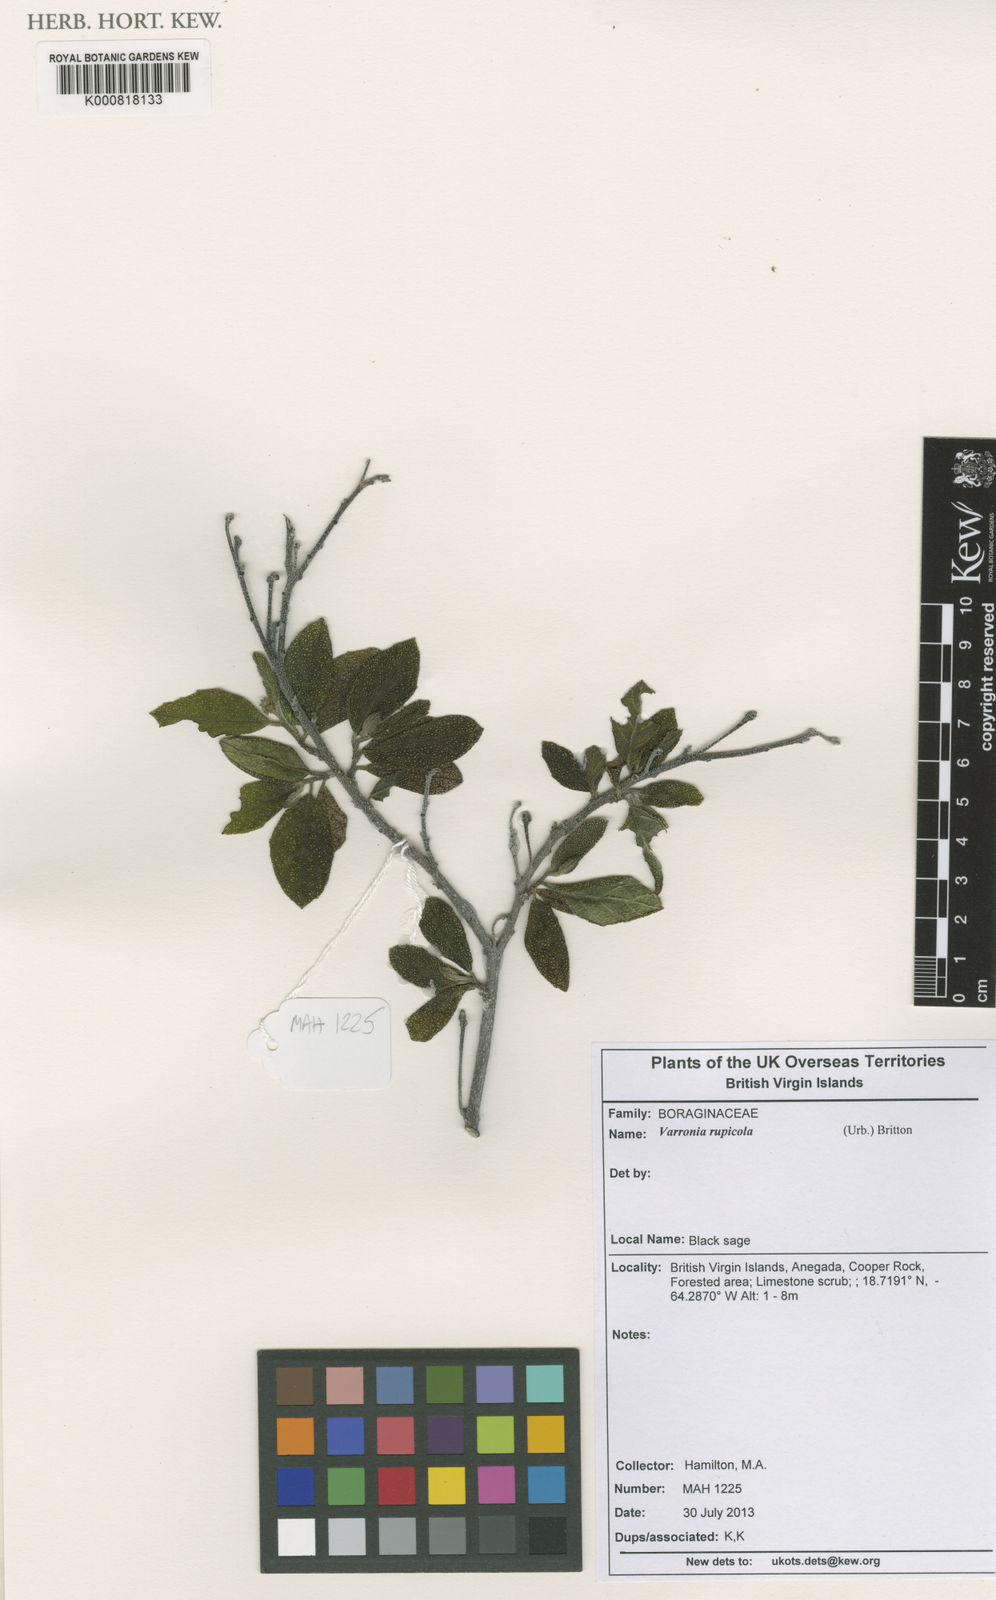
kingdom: Plantae
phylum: Tracheophyta
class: Magnoliopsida
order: Boraginales
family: Cordiaceae
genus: Varronia
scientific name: Varronia rupicola
